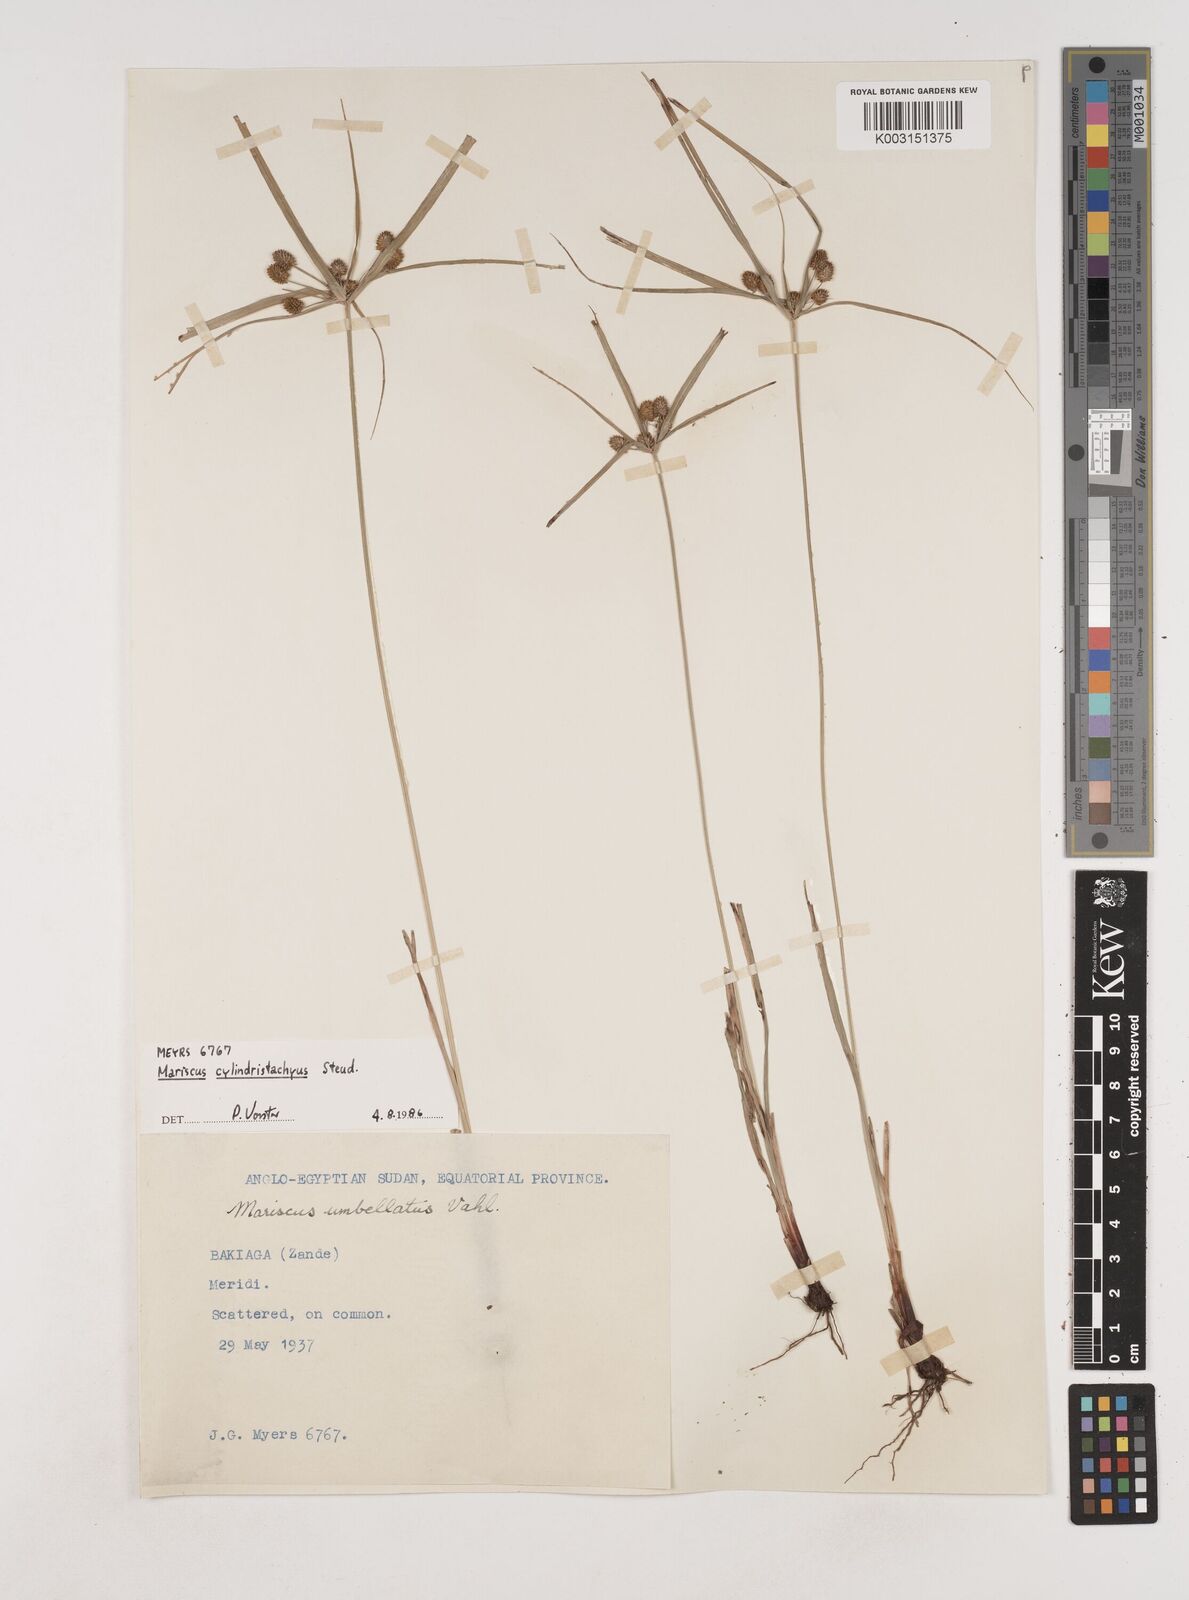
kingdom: Plantae
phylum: Tracheophyta
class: Liliopsida
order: Poales
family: Cyperaceae
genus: Cyperus
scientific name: Cyperus cyperoides
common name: Pacific island flat sedge
